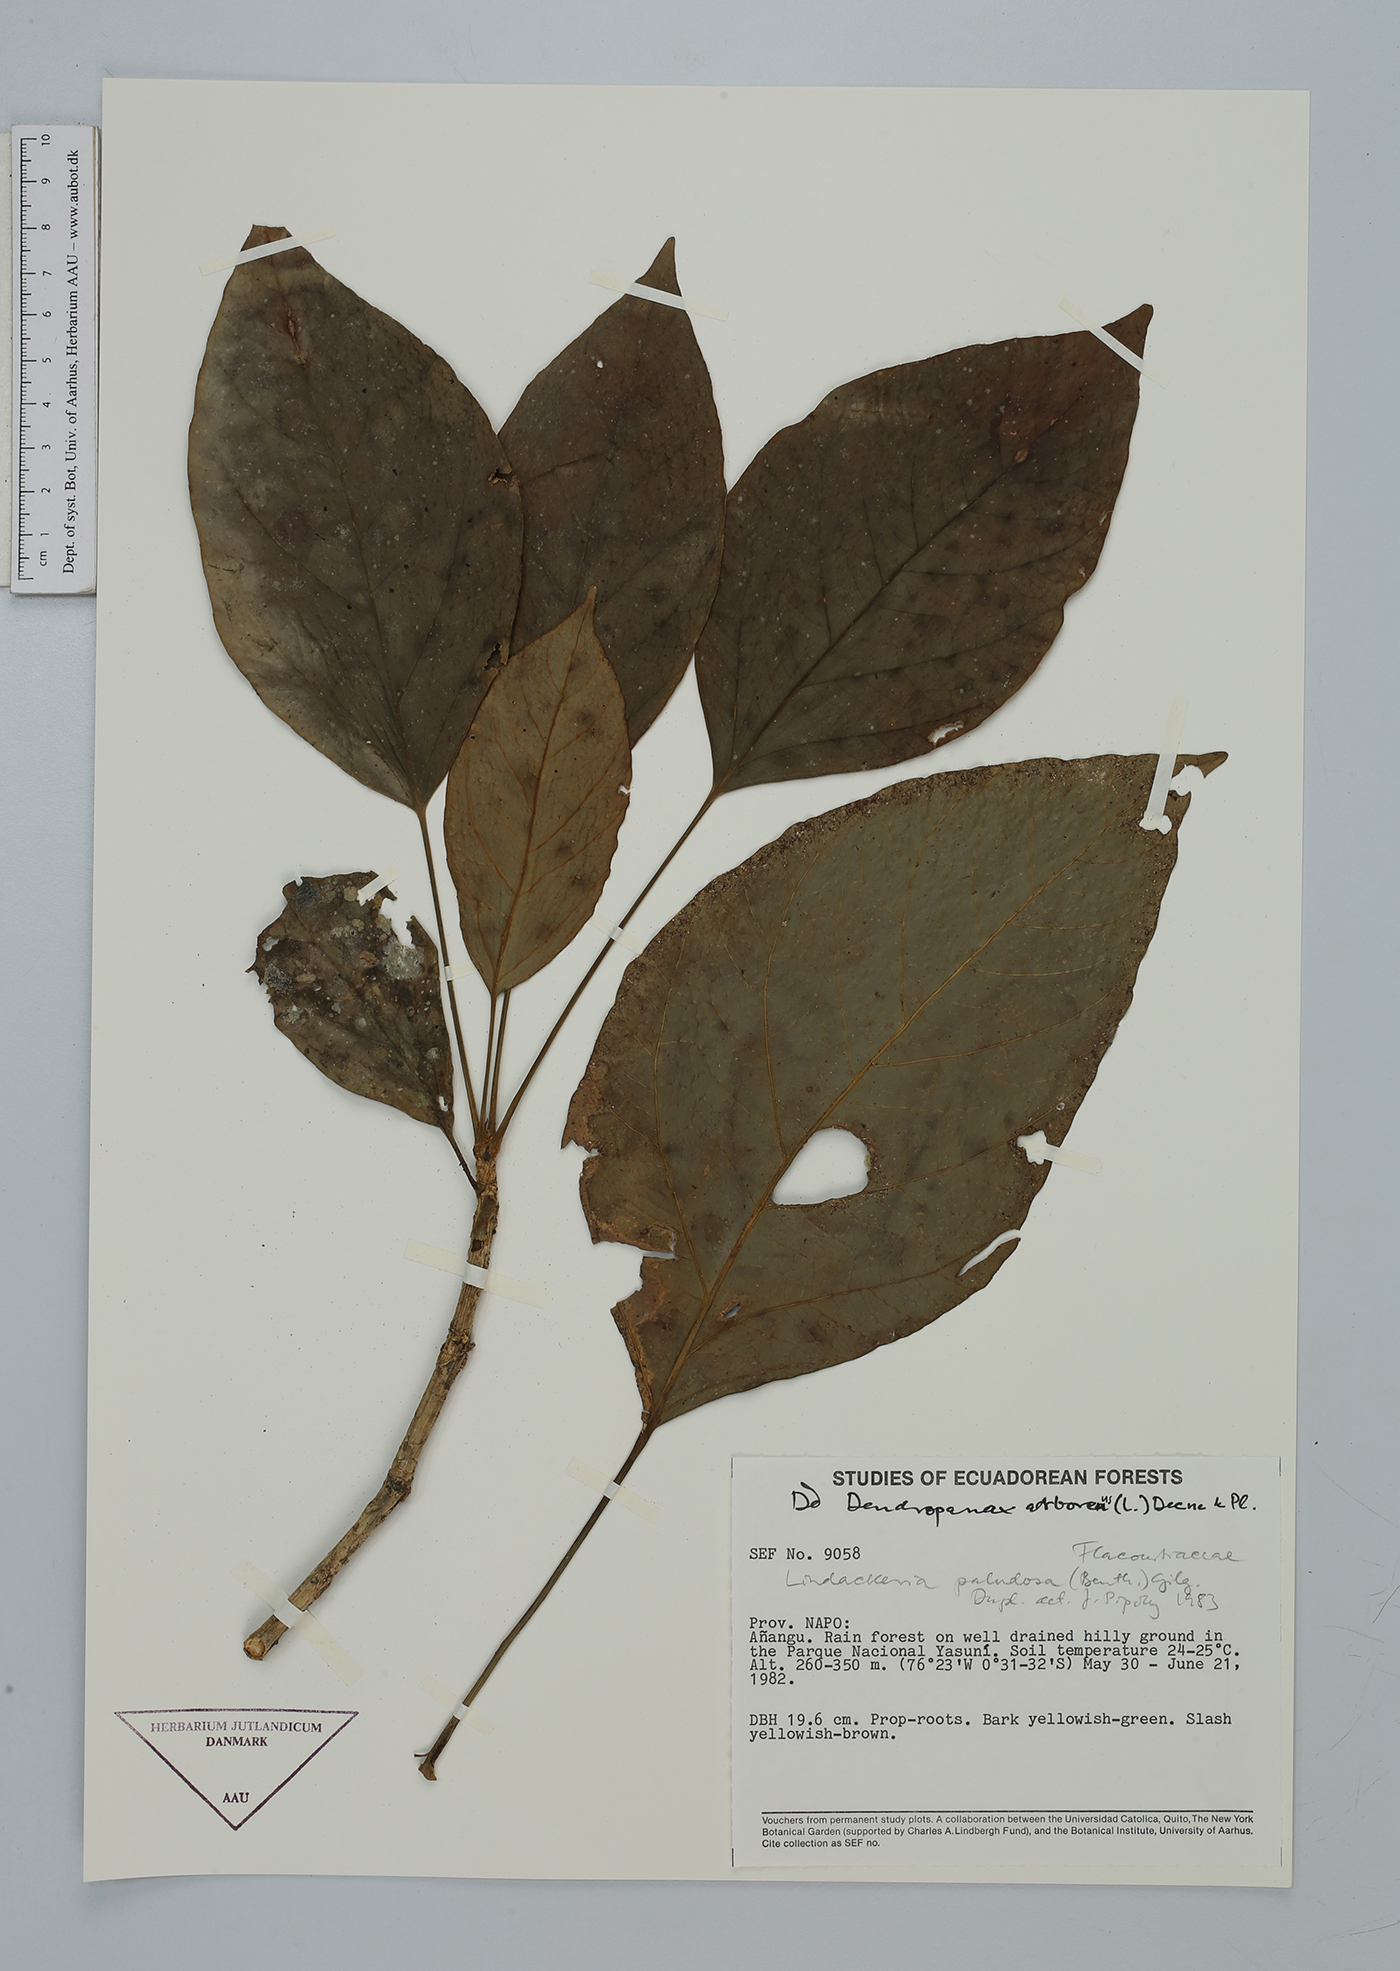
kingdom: Plantae
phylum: Tracheophyta
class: Magnoliopsida
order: Apiales
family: Araliaceae
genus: Dendropanax
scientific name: Dendropanax arboreus
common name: Potato-wood
